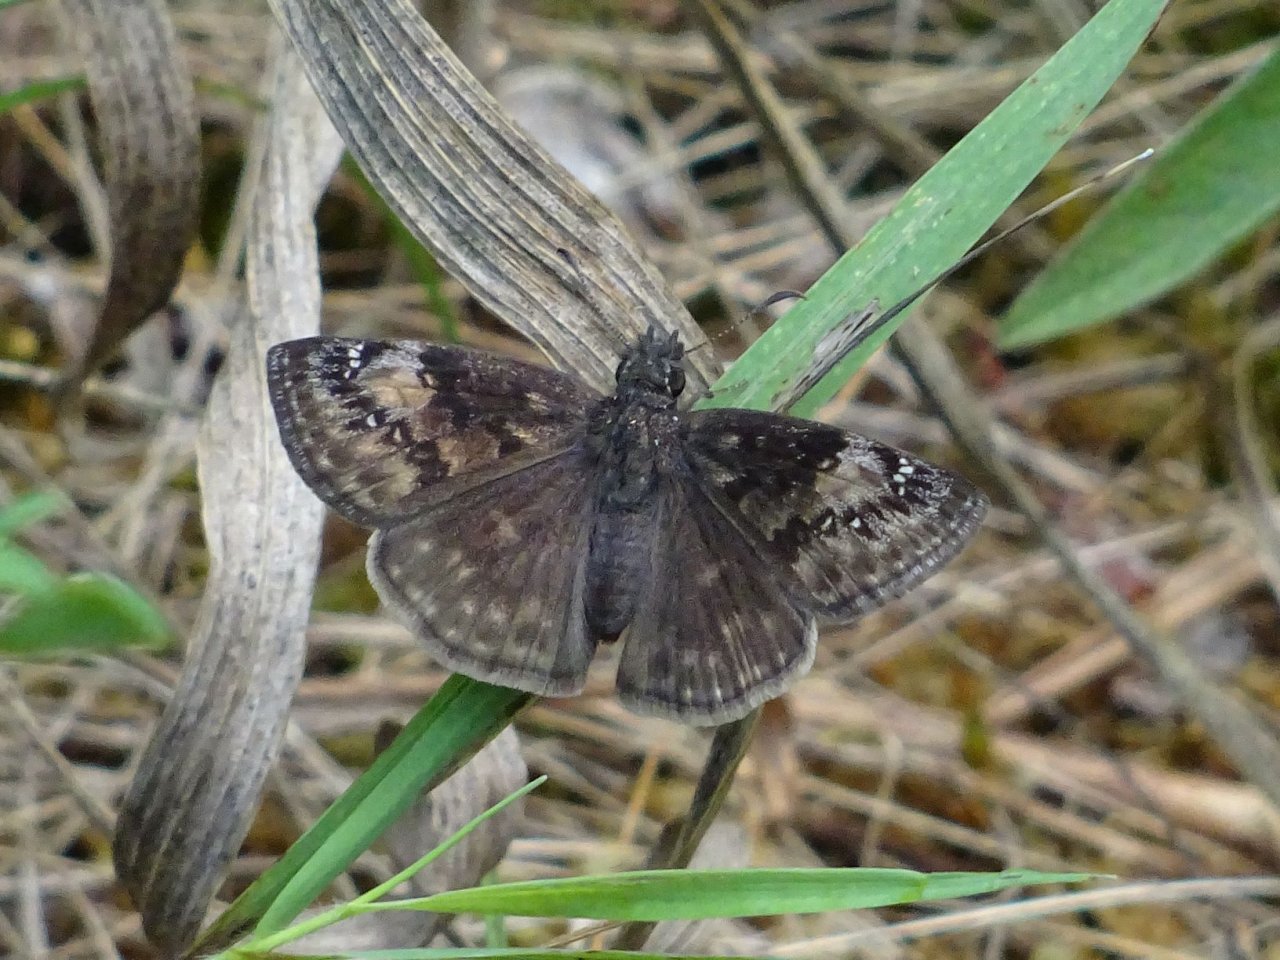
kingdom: Animalia
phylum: Arthropoda
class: Insecta
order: Lepidoptera
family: Hesperiidae
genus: Gesta
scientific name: Gesta
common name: Wild Indigo Duskywing
